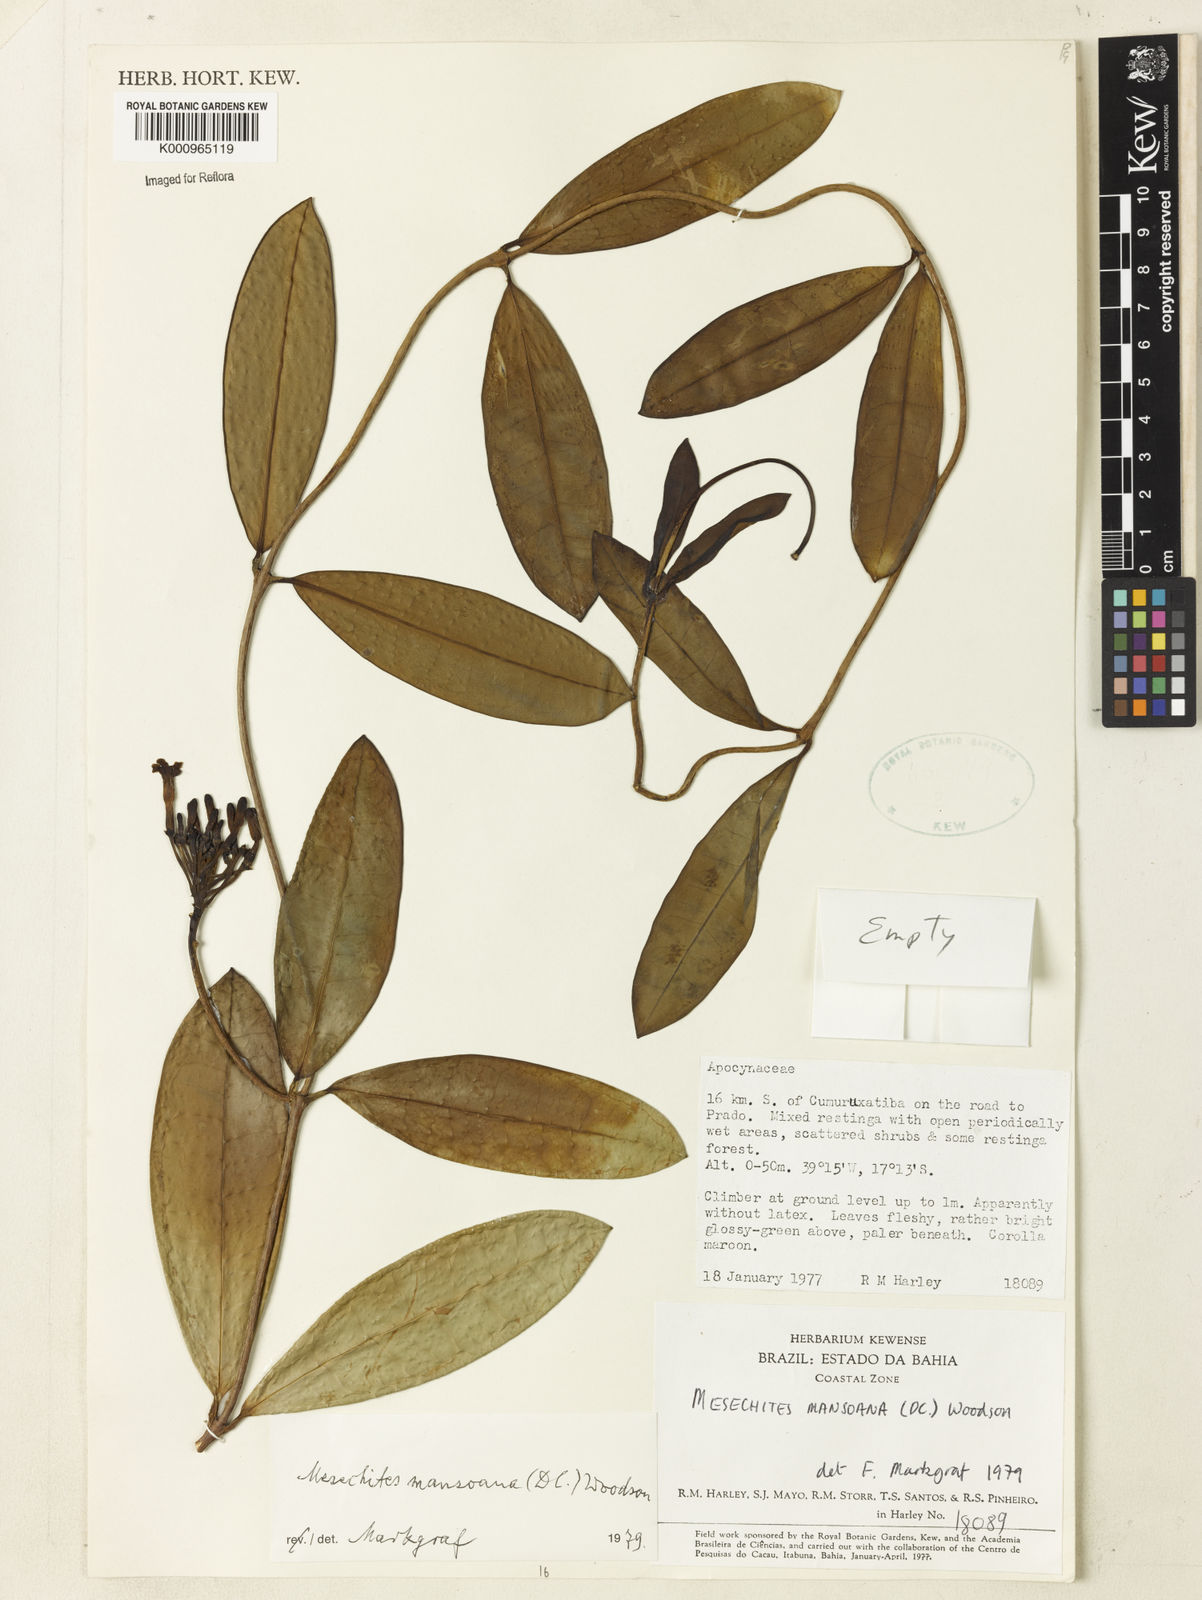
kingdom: Plantae
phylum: Tracheophyta
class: Magnoliopsida
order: Gentianales
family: Apocynaceae
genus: Mesechites
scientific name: Mesechites
